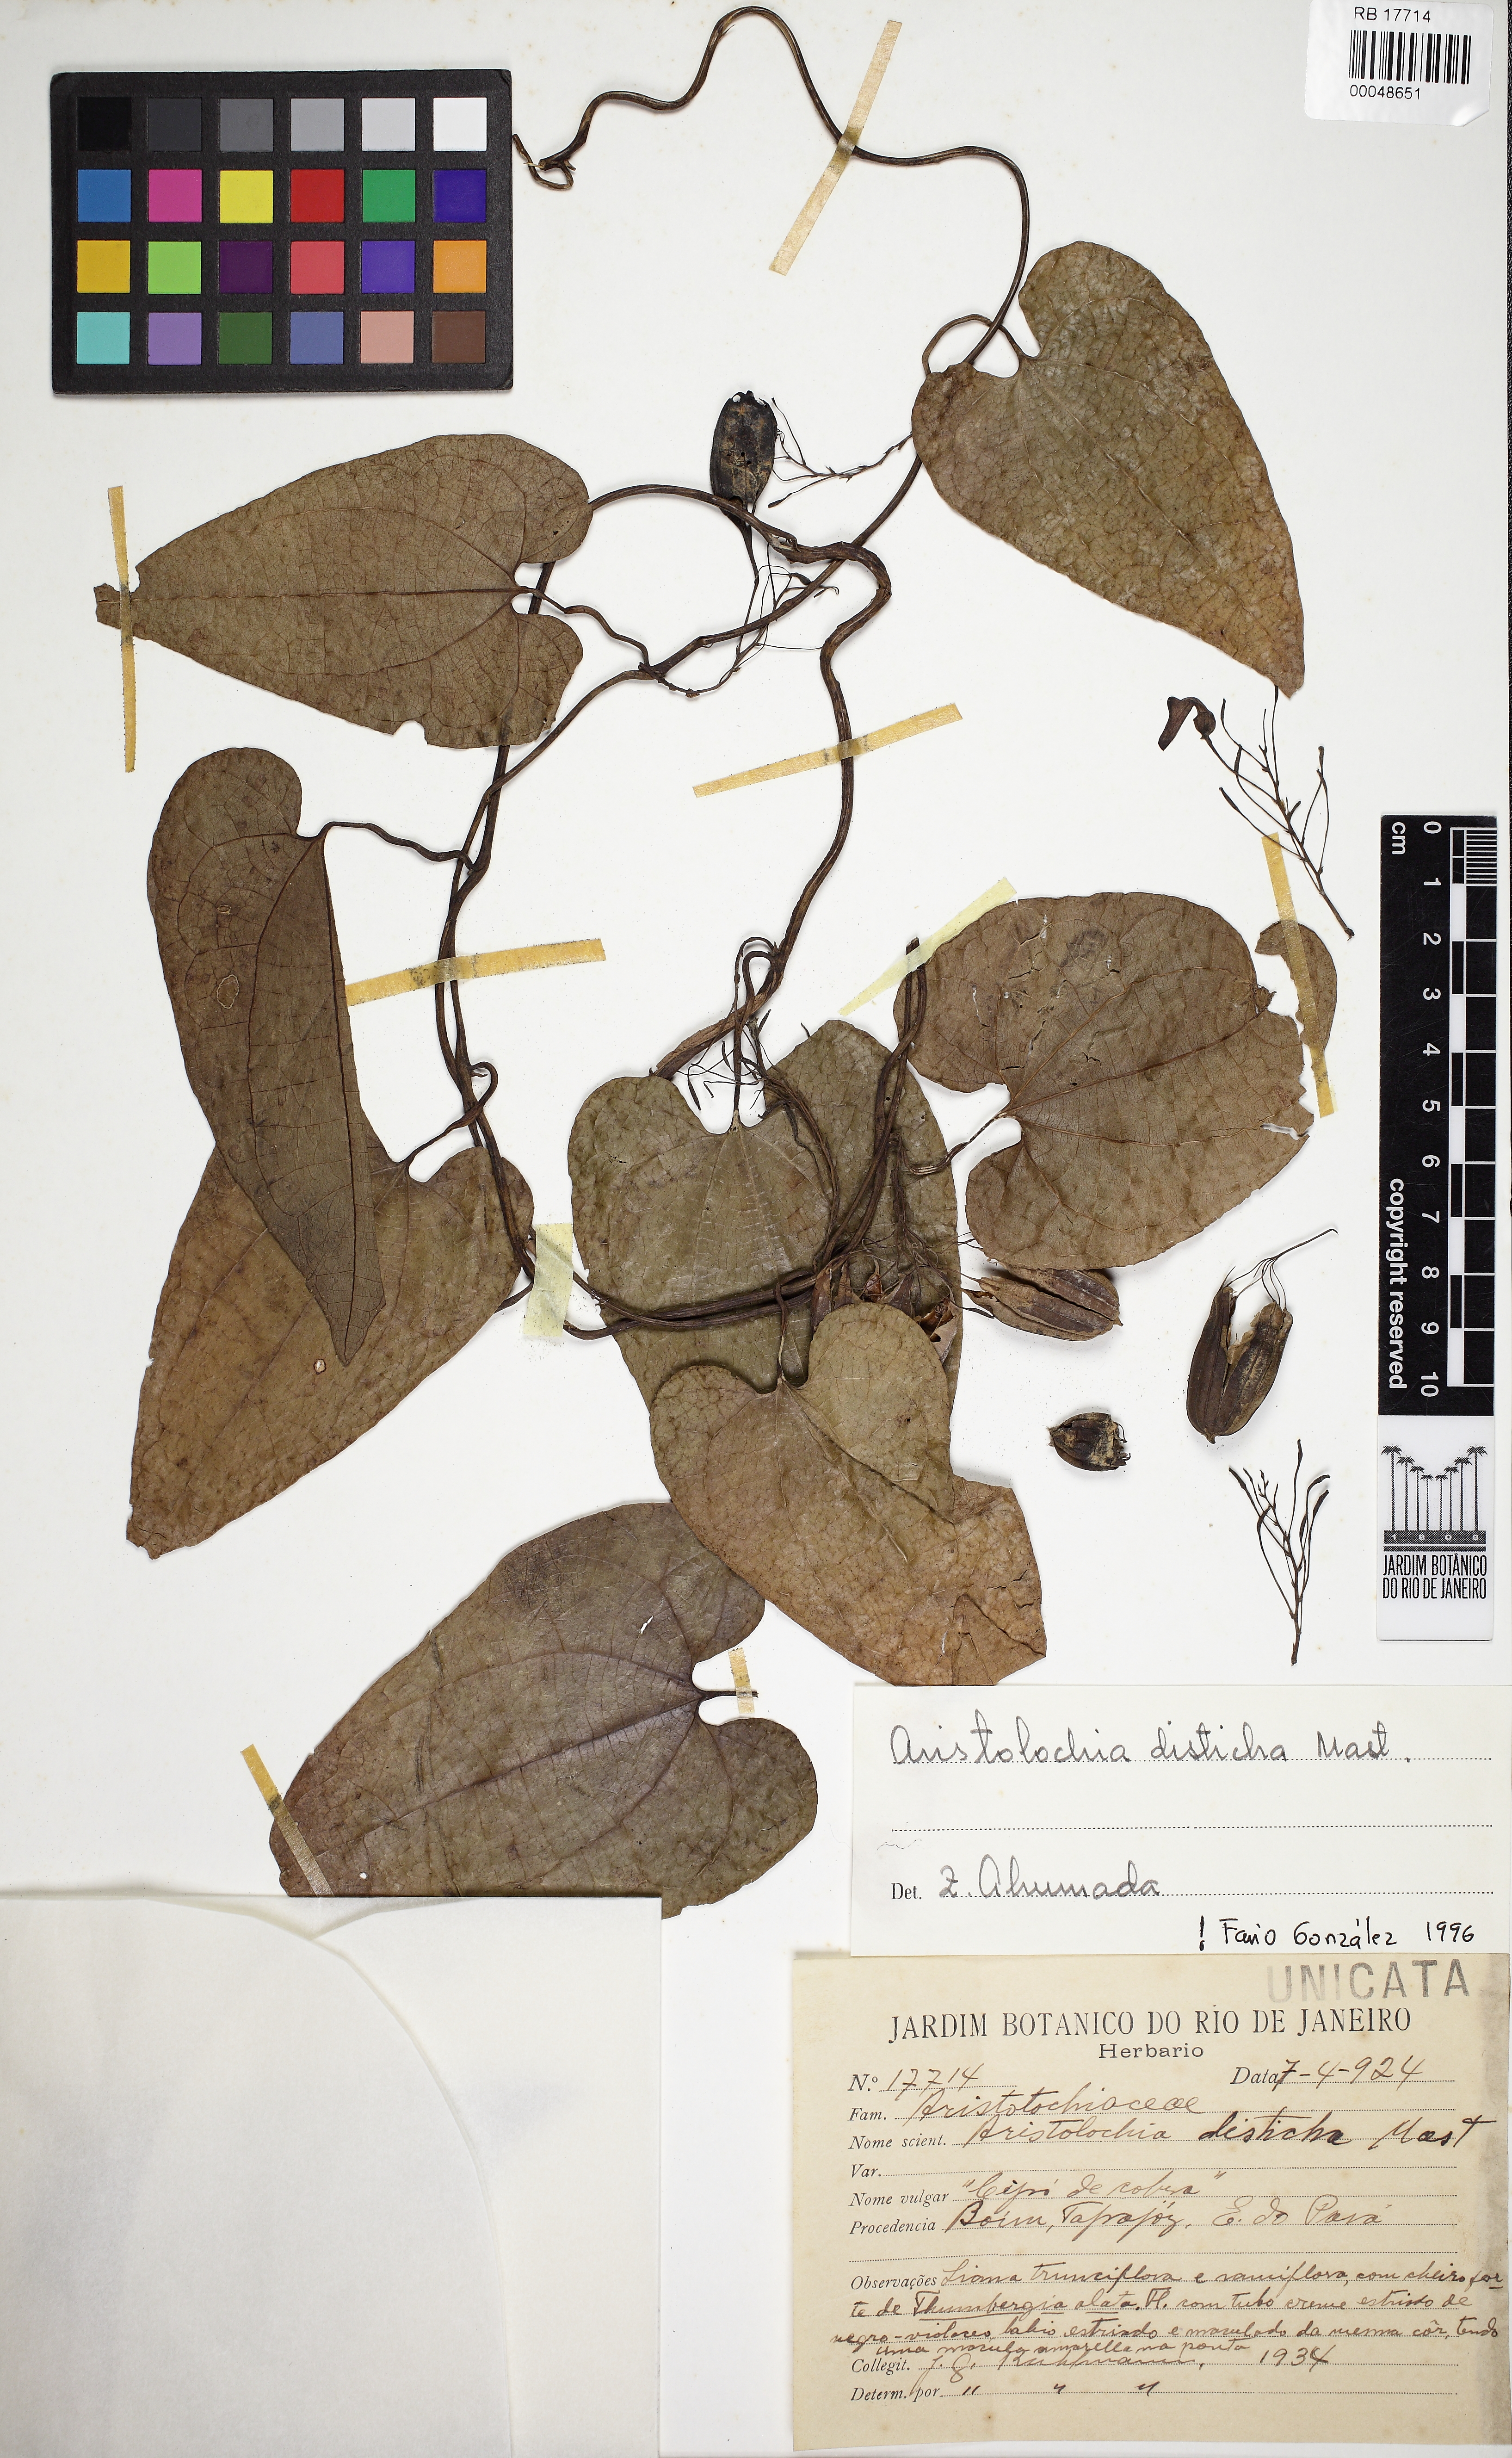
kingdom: Plantae
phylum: Tracheophyta
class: Magnoliopsida
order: Piperales
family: Aristolochiaceae
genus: Aristolochia
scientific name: Aristolochia disticha
